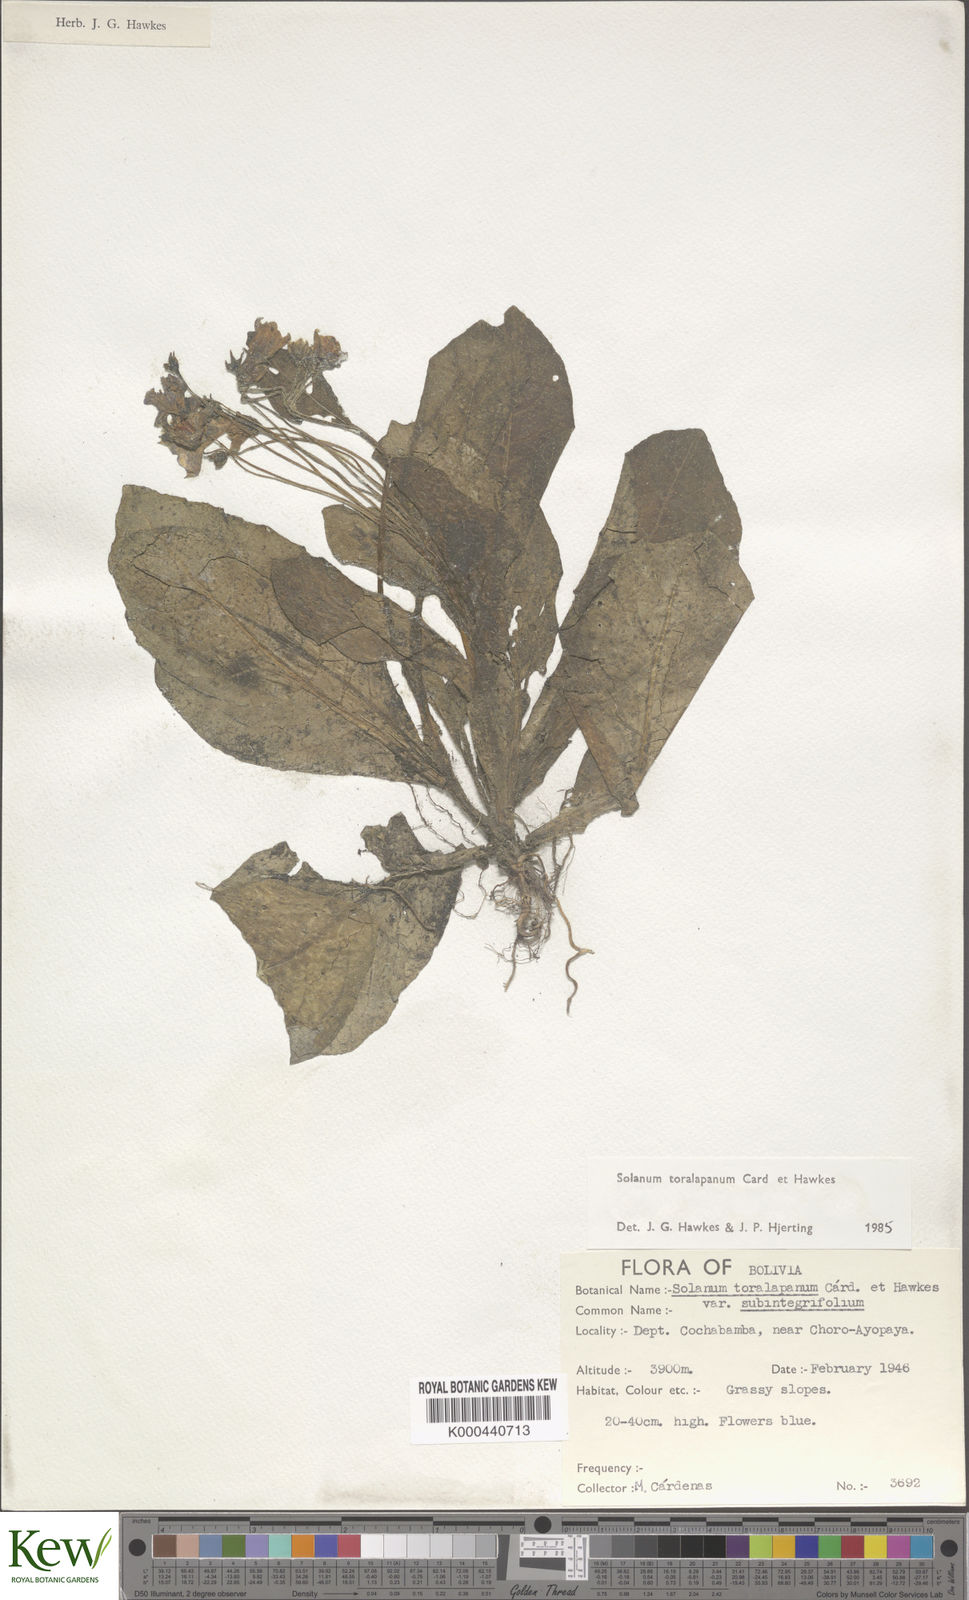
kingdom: Plantae
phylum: Tracheophyta
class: Magnoliopsida
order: Solanales
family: Solanaceae
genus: Solanum
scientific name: Solanum boliviense
